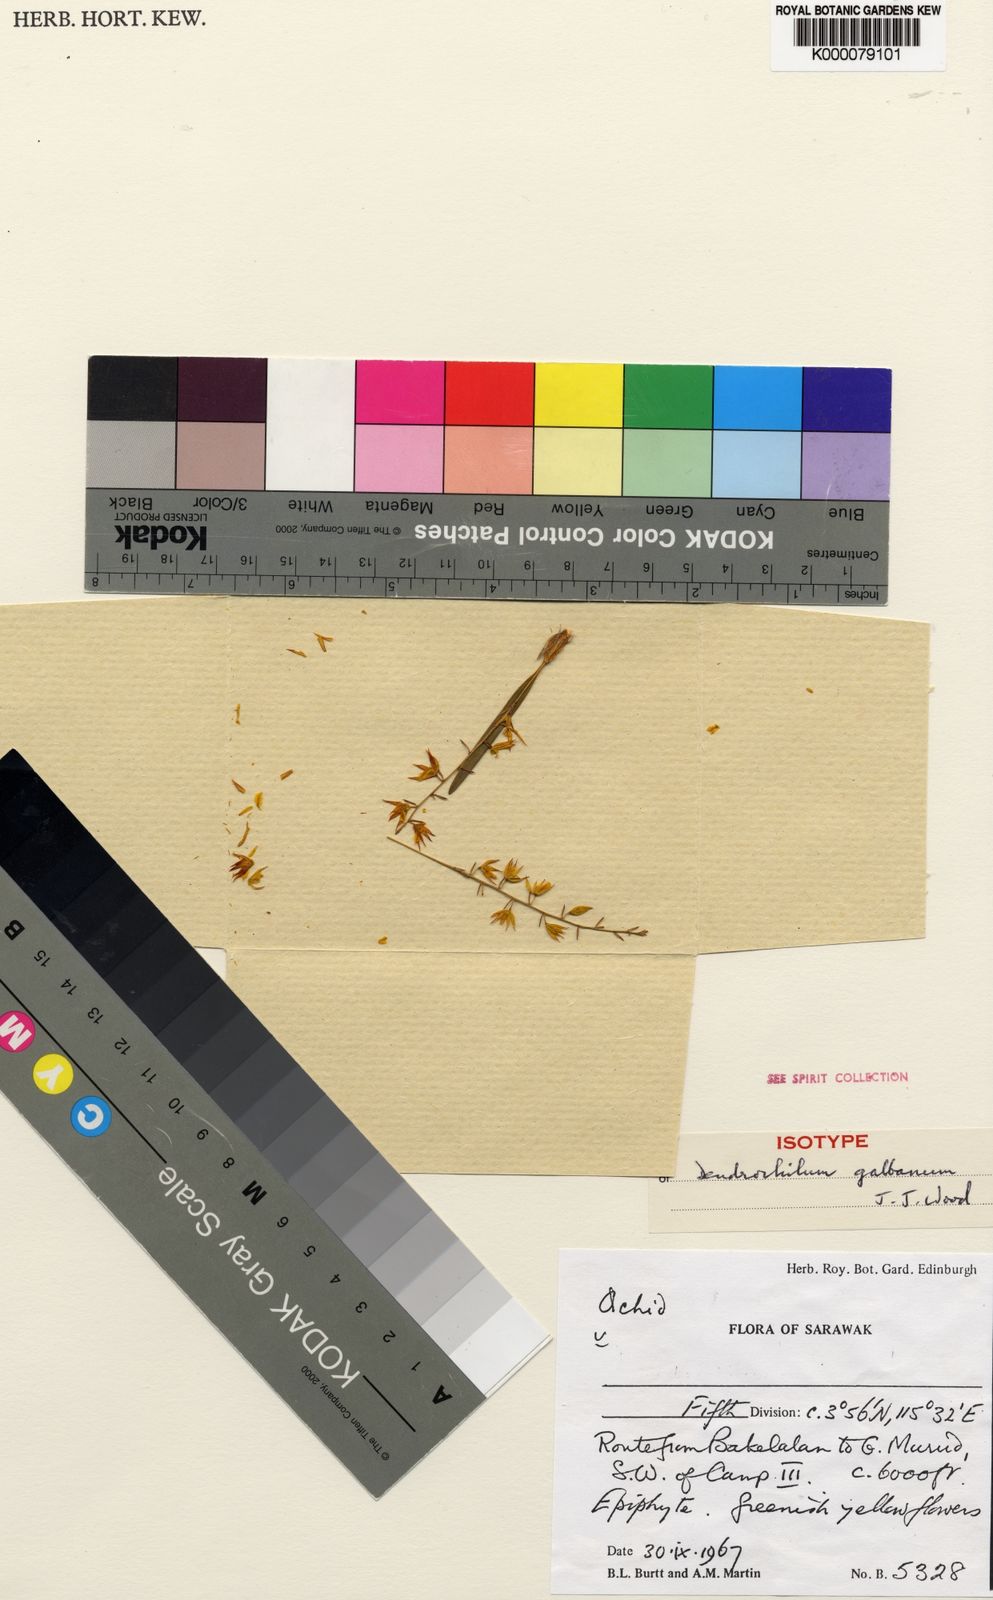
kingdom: Plantae
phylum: Tracheophyta
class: Liliopsida
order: Asparagales
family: Orchidaceae
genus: Coelogyne
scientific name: Coelogyne galbana
